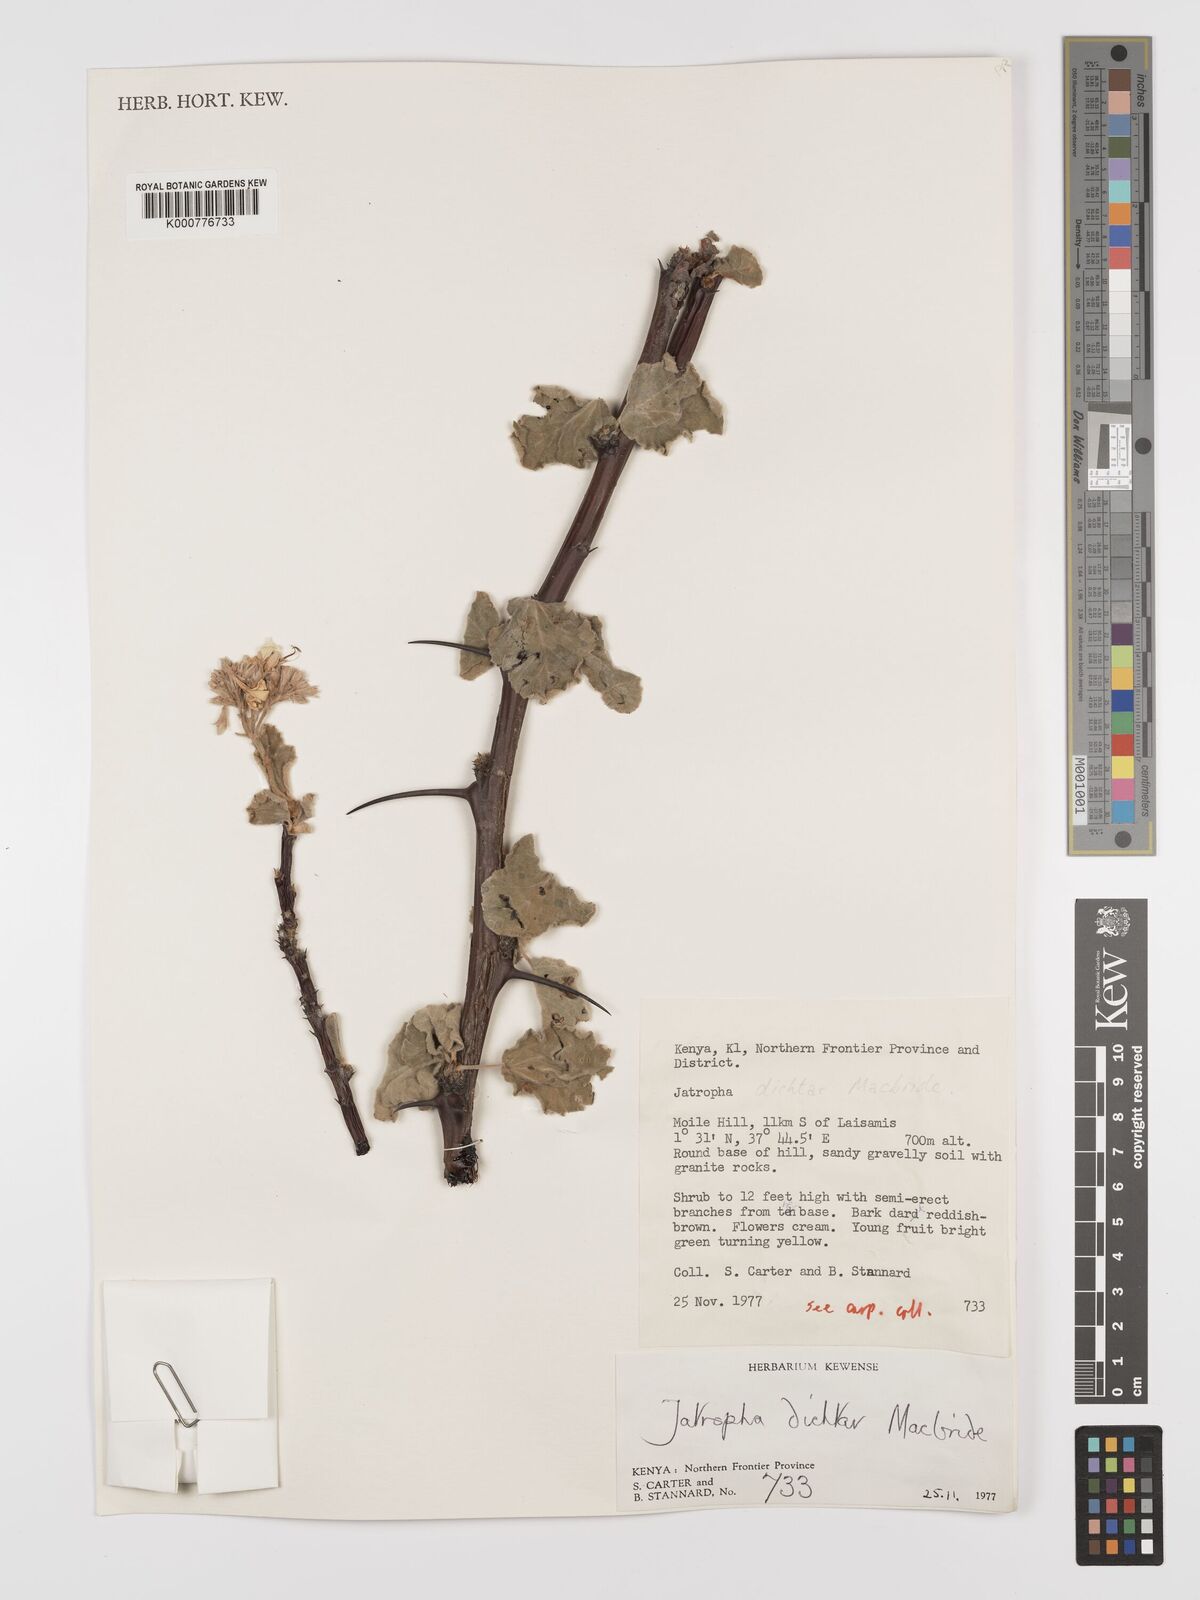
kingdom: Plantae
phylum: Tracheophyta
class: Magnoliopsida
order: Malpighiales
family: Euphorbiaceae
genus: Jatropha
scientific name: Jatropha dichtar
